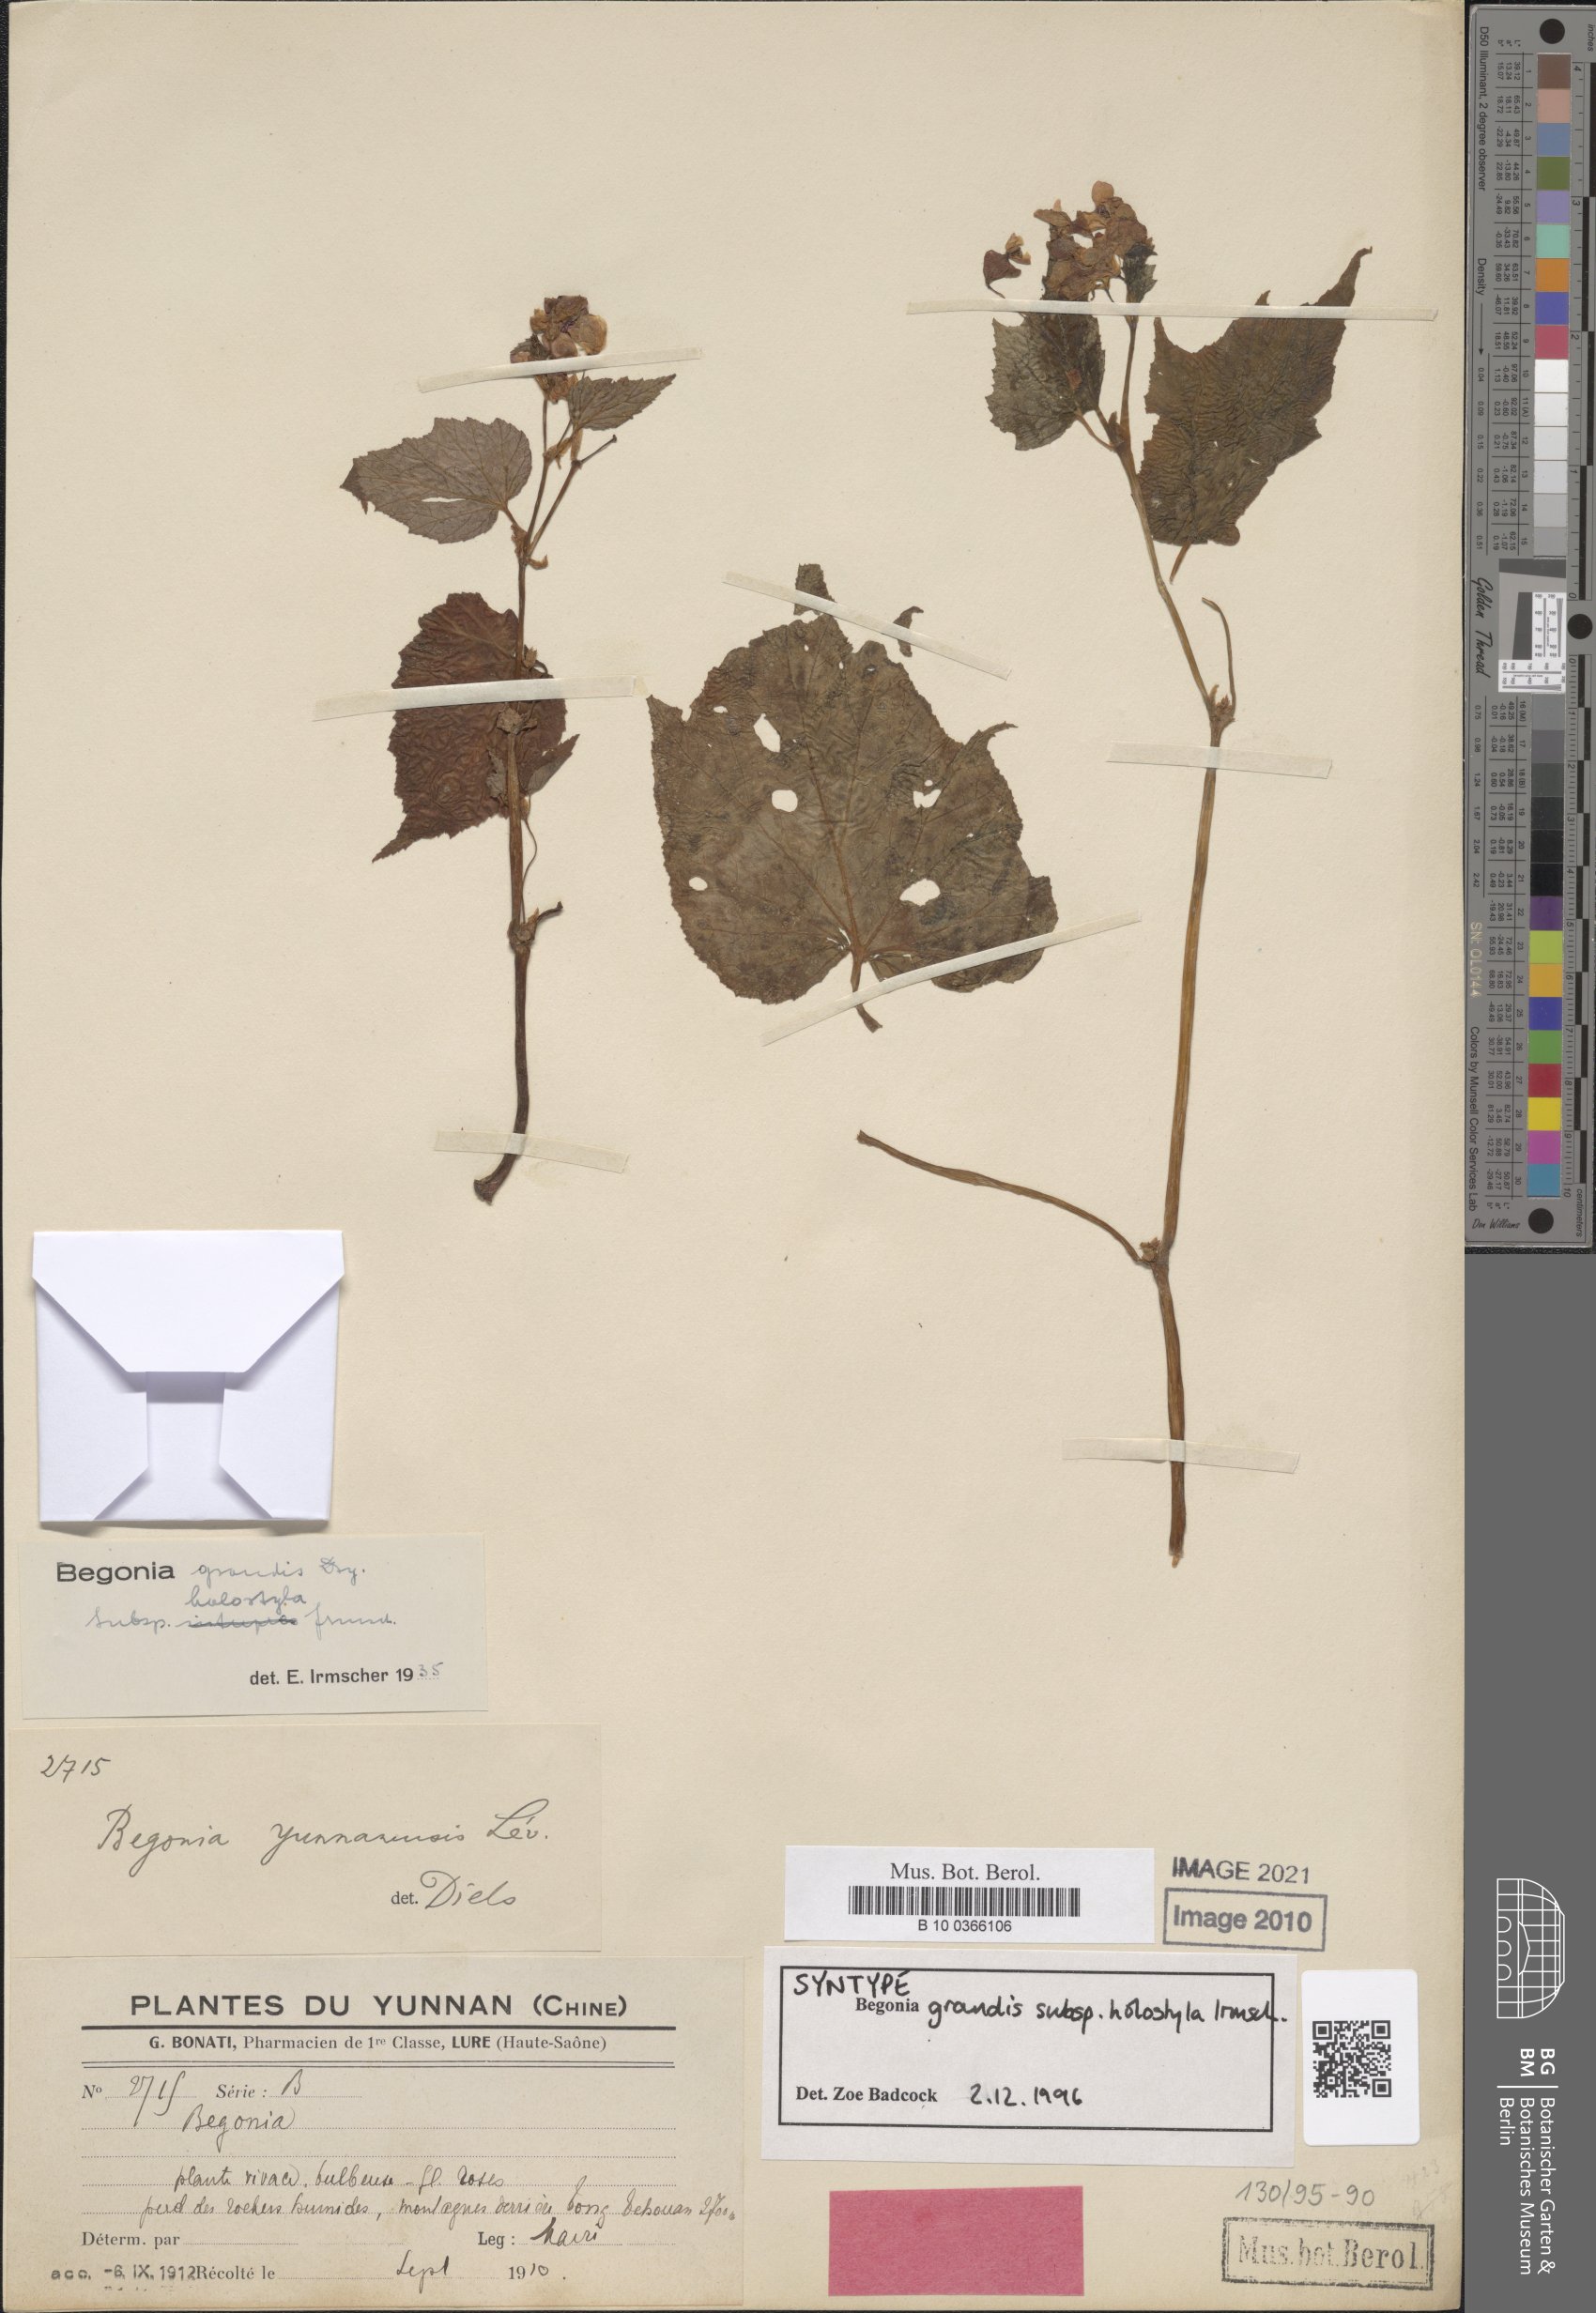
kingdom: Plantae
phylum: Tracheophyta
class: Magnoliopsida
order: Cucurbitales
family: Begoniaceae
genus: Begonia
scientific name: Begonia grandis
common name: Hardy begonia
